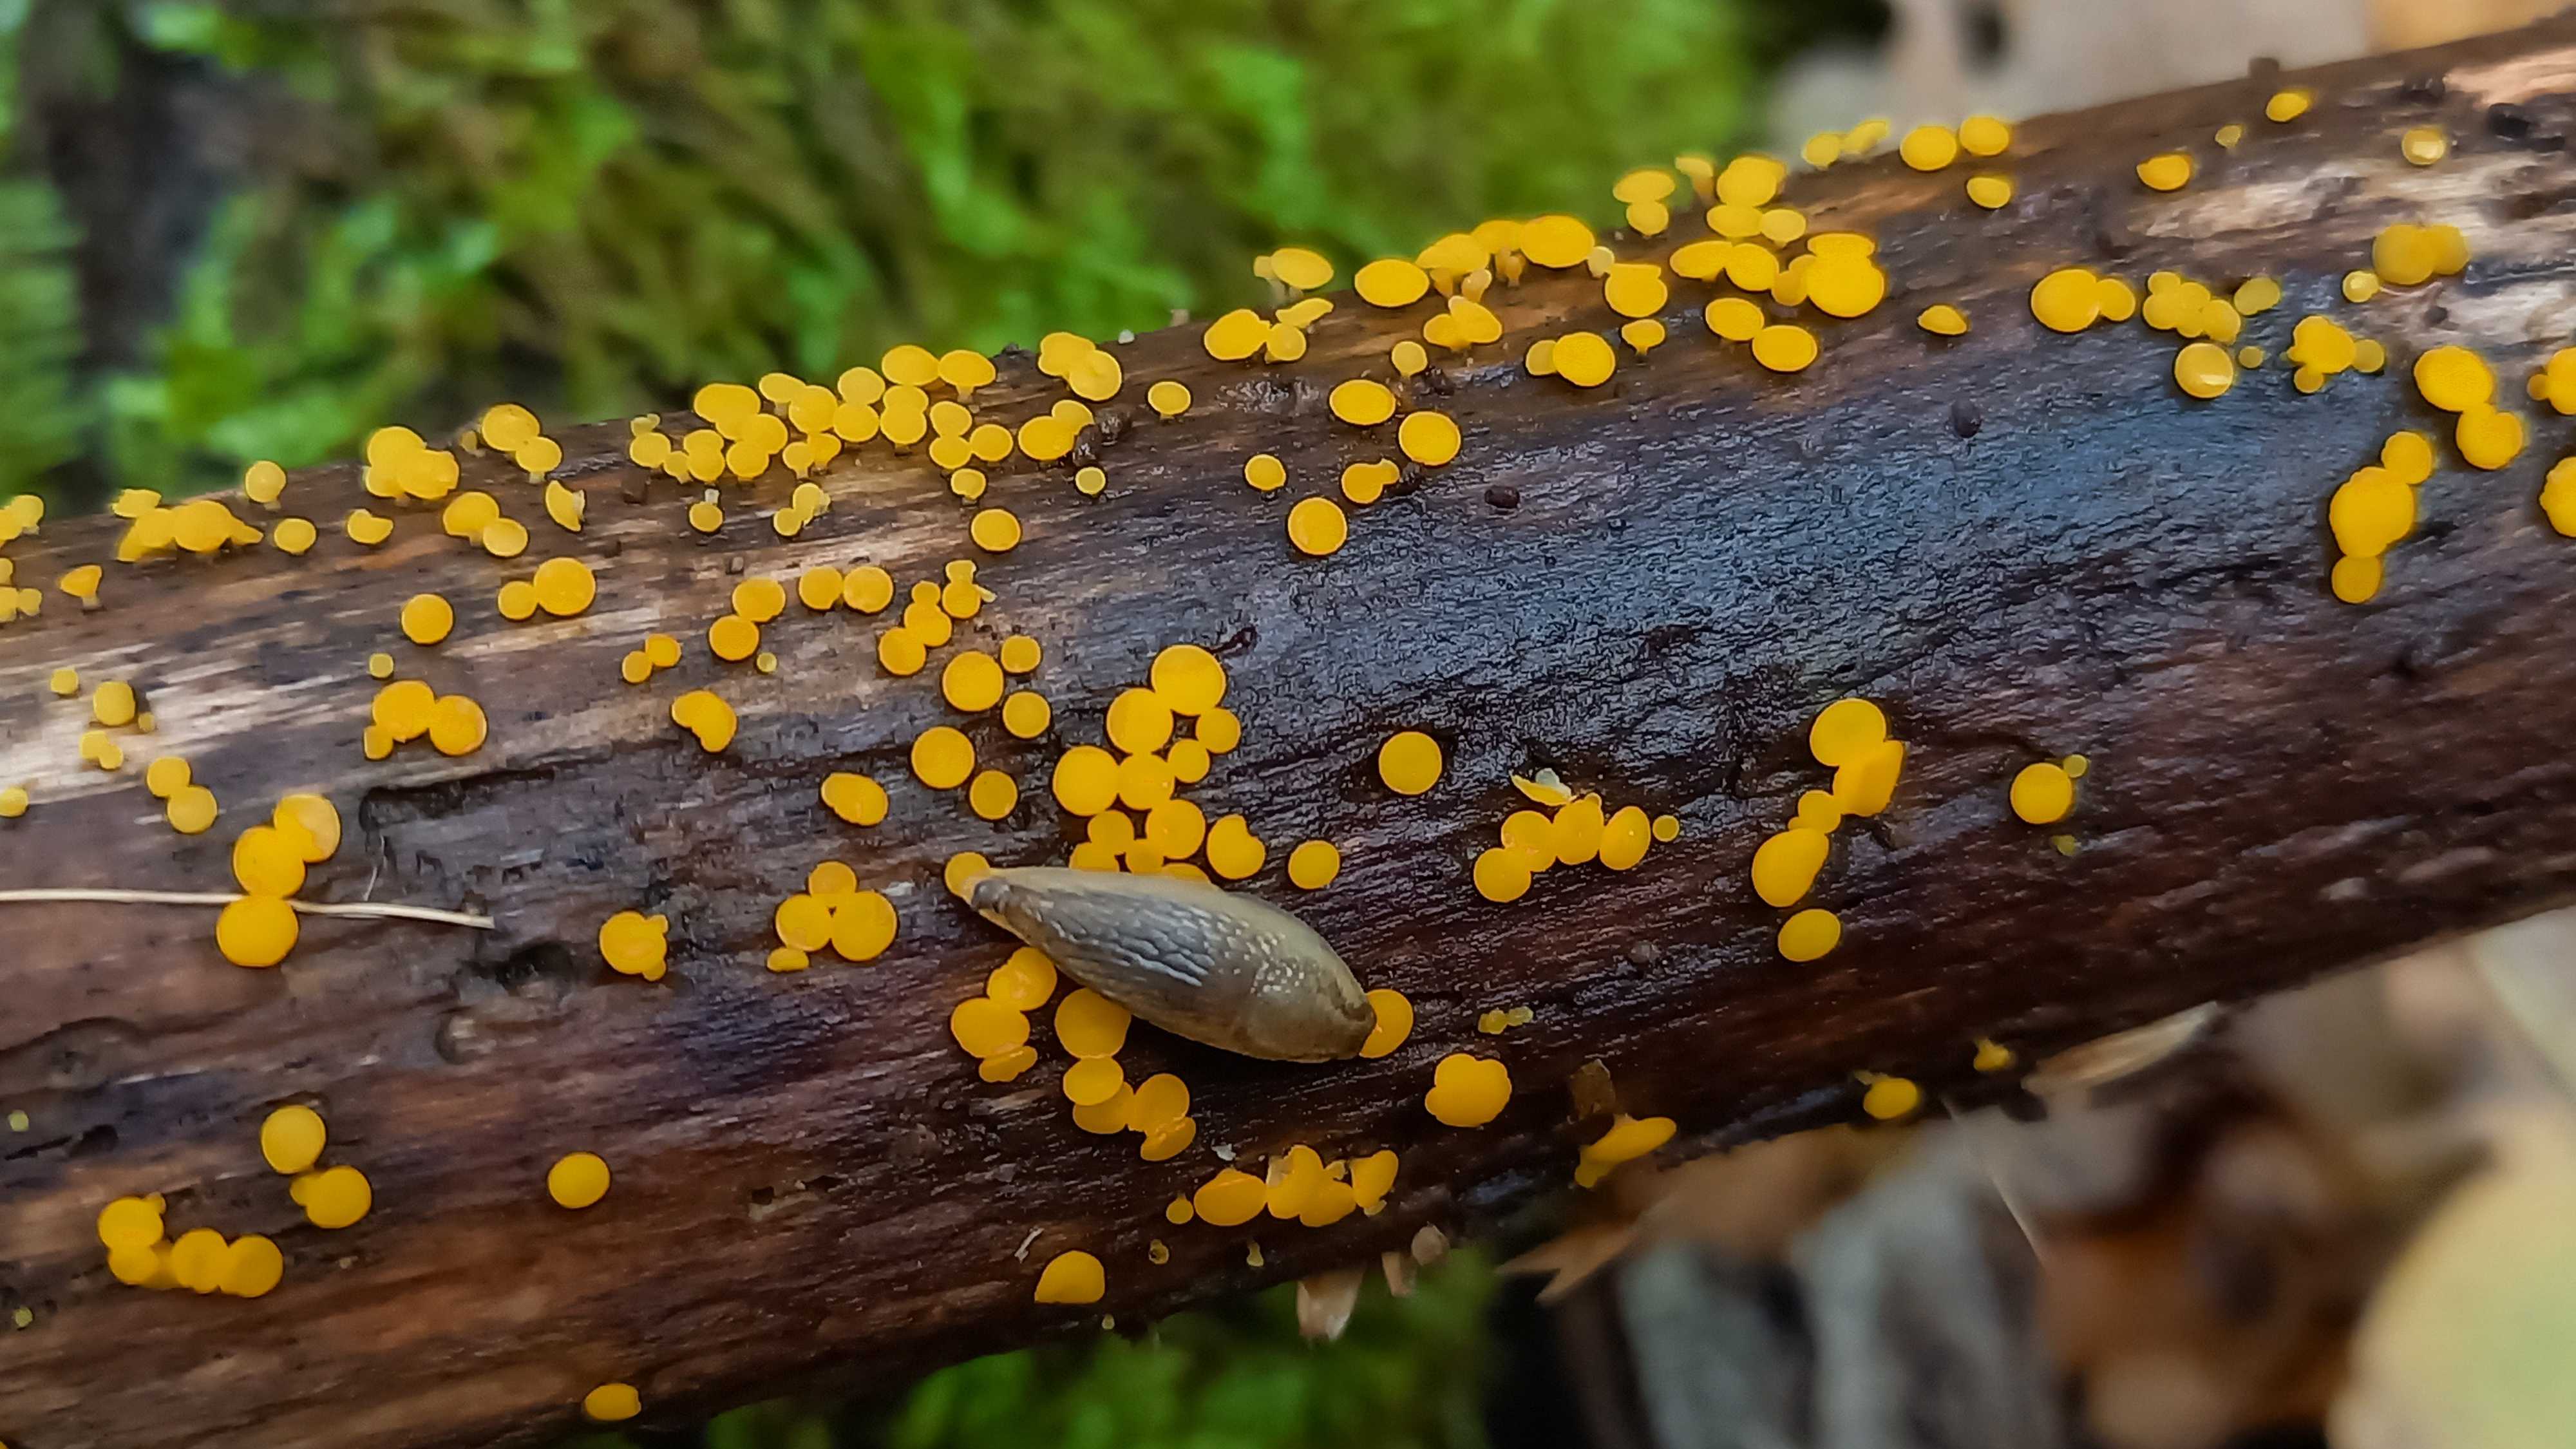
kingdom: Fungi
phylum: Ascomycota
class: Leotiomycetes
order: Helotiales
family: Pezizellaceae
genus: Calycina
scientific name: Calycina citrina
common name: almindelig gulskive
